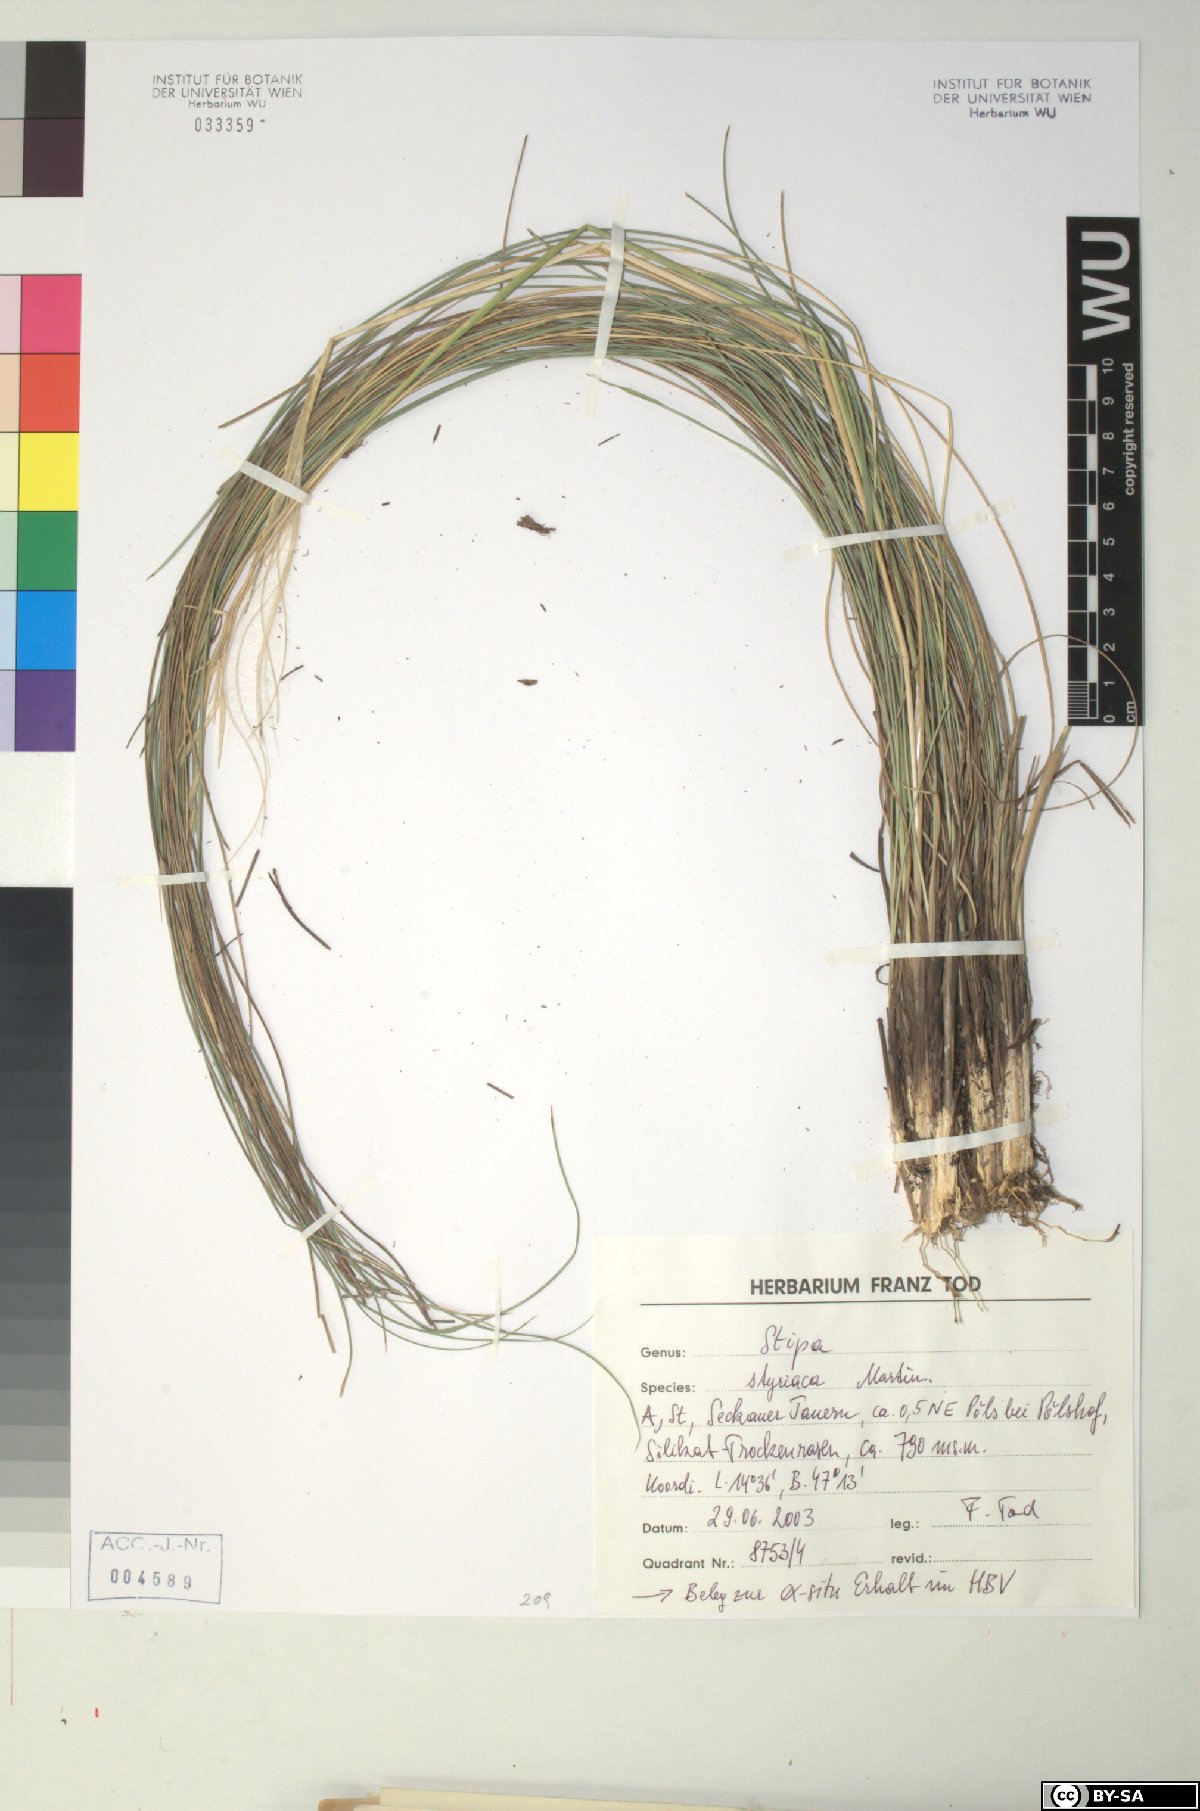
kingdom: Plantae
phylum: Tracheophyta
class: Liliopsida
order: Poales
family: Poaceae
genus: Stipa
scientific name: Stipa pennata
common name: European feather grass
